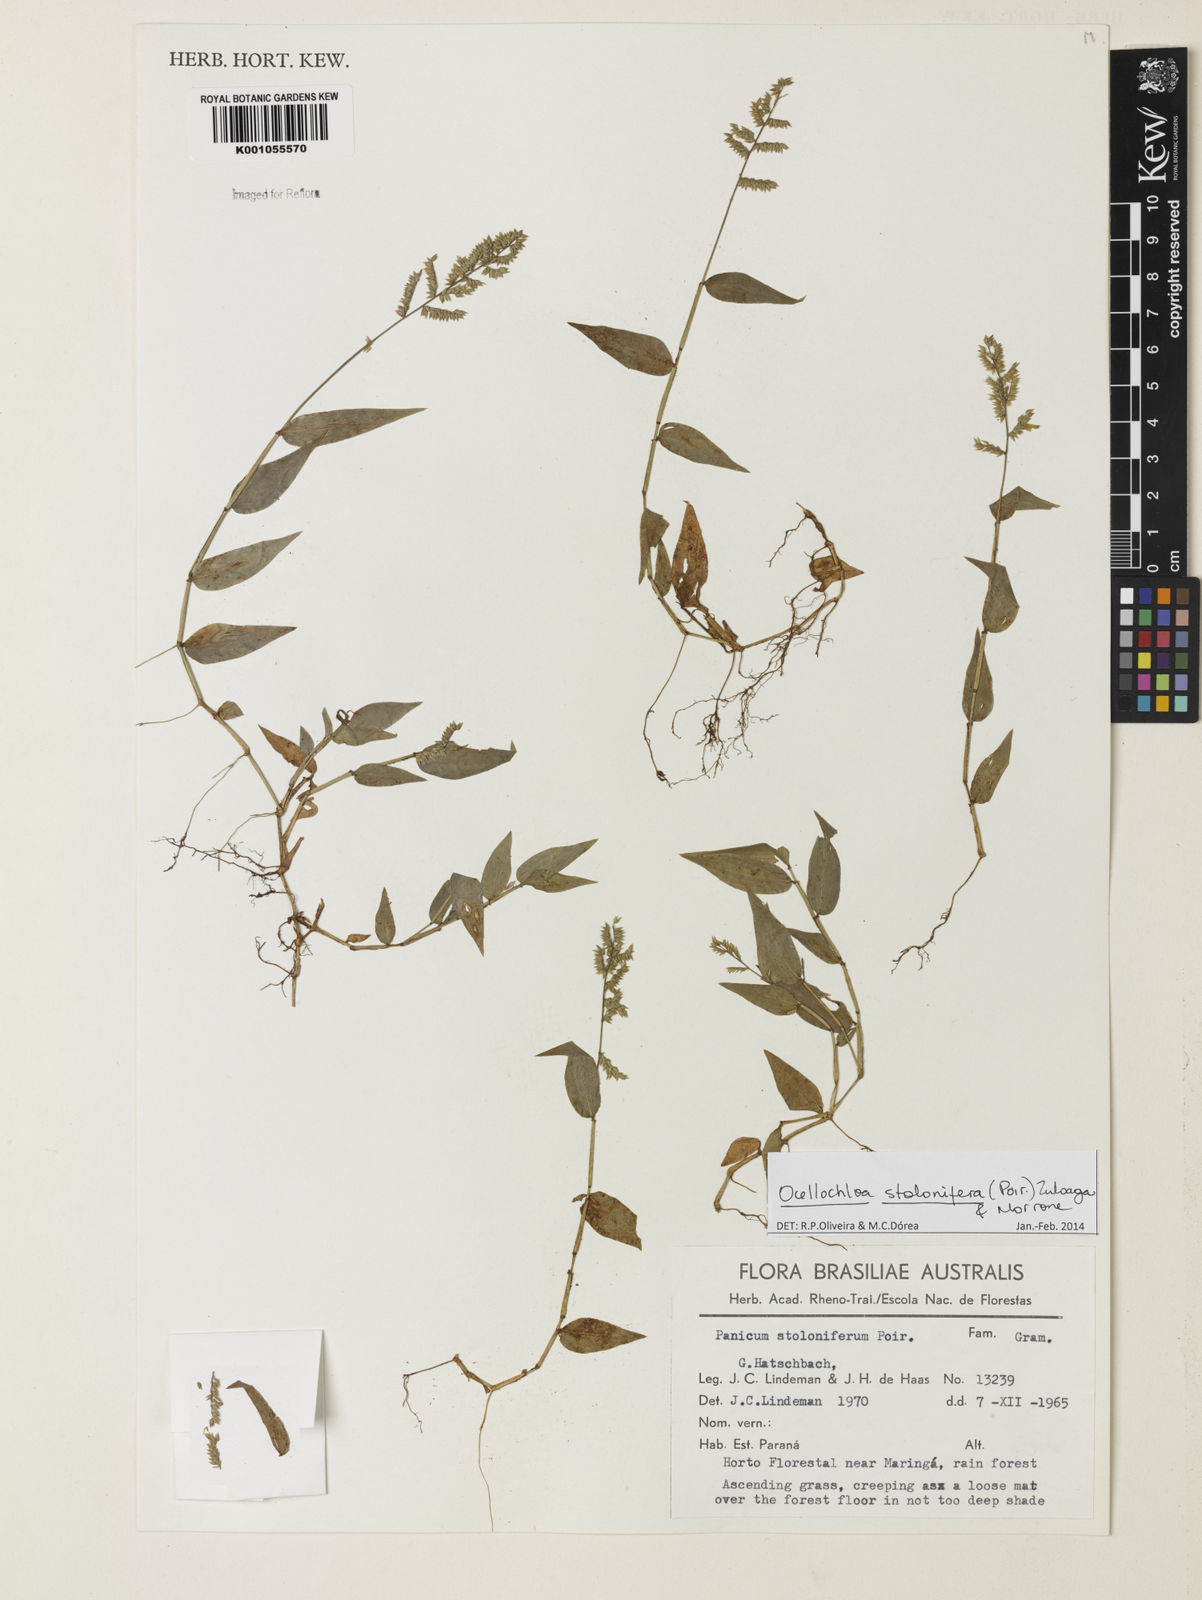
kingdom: Plantae
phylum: Tracheophyta
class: Liliopsida
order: Poales
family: Poaceae
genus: Ocellochloa
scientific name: Ocellochloa stolonifera
